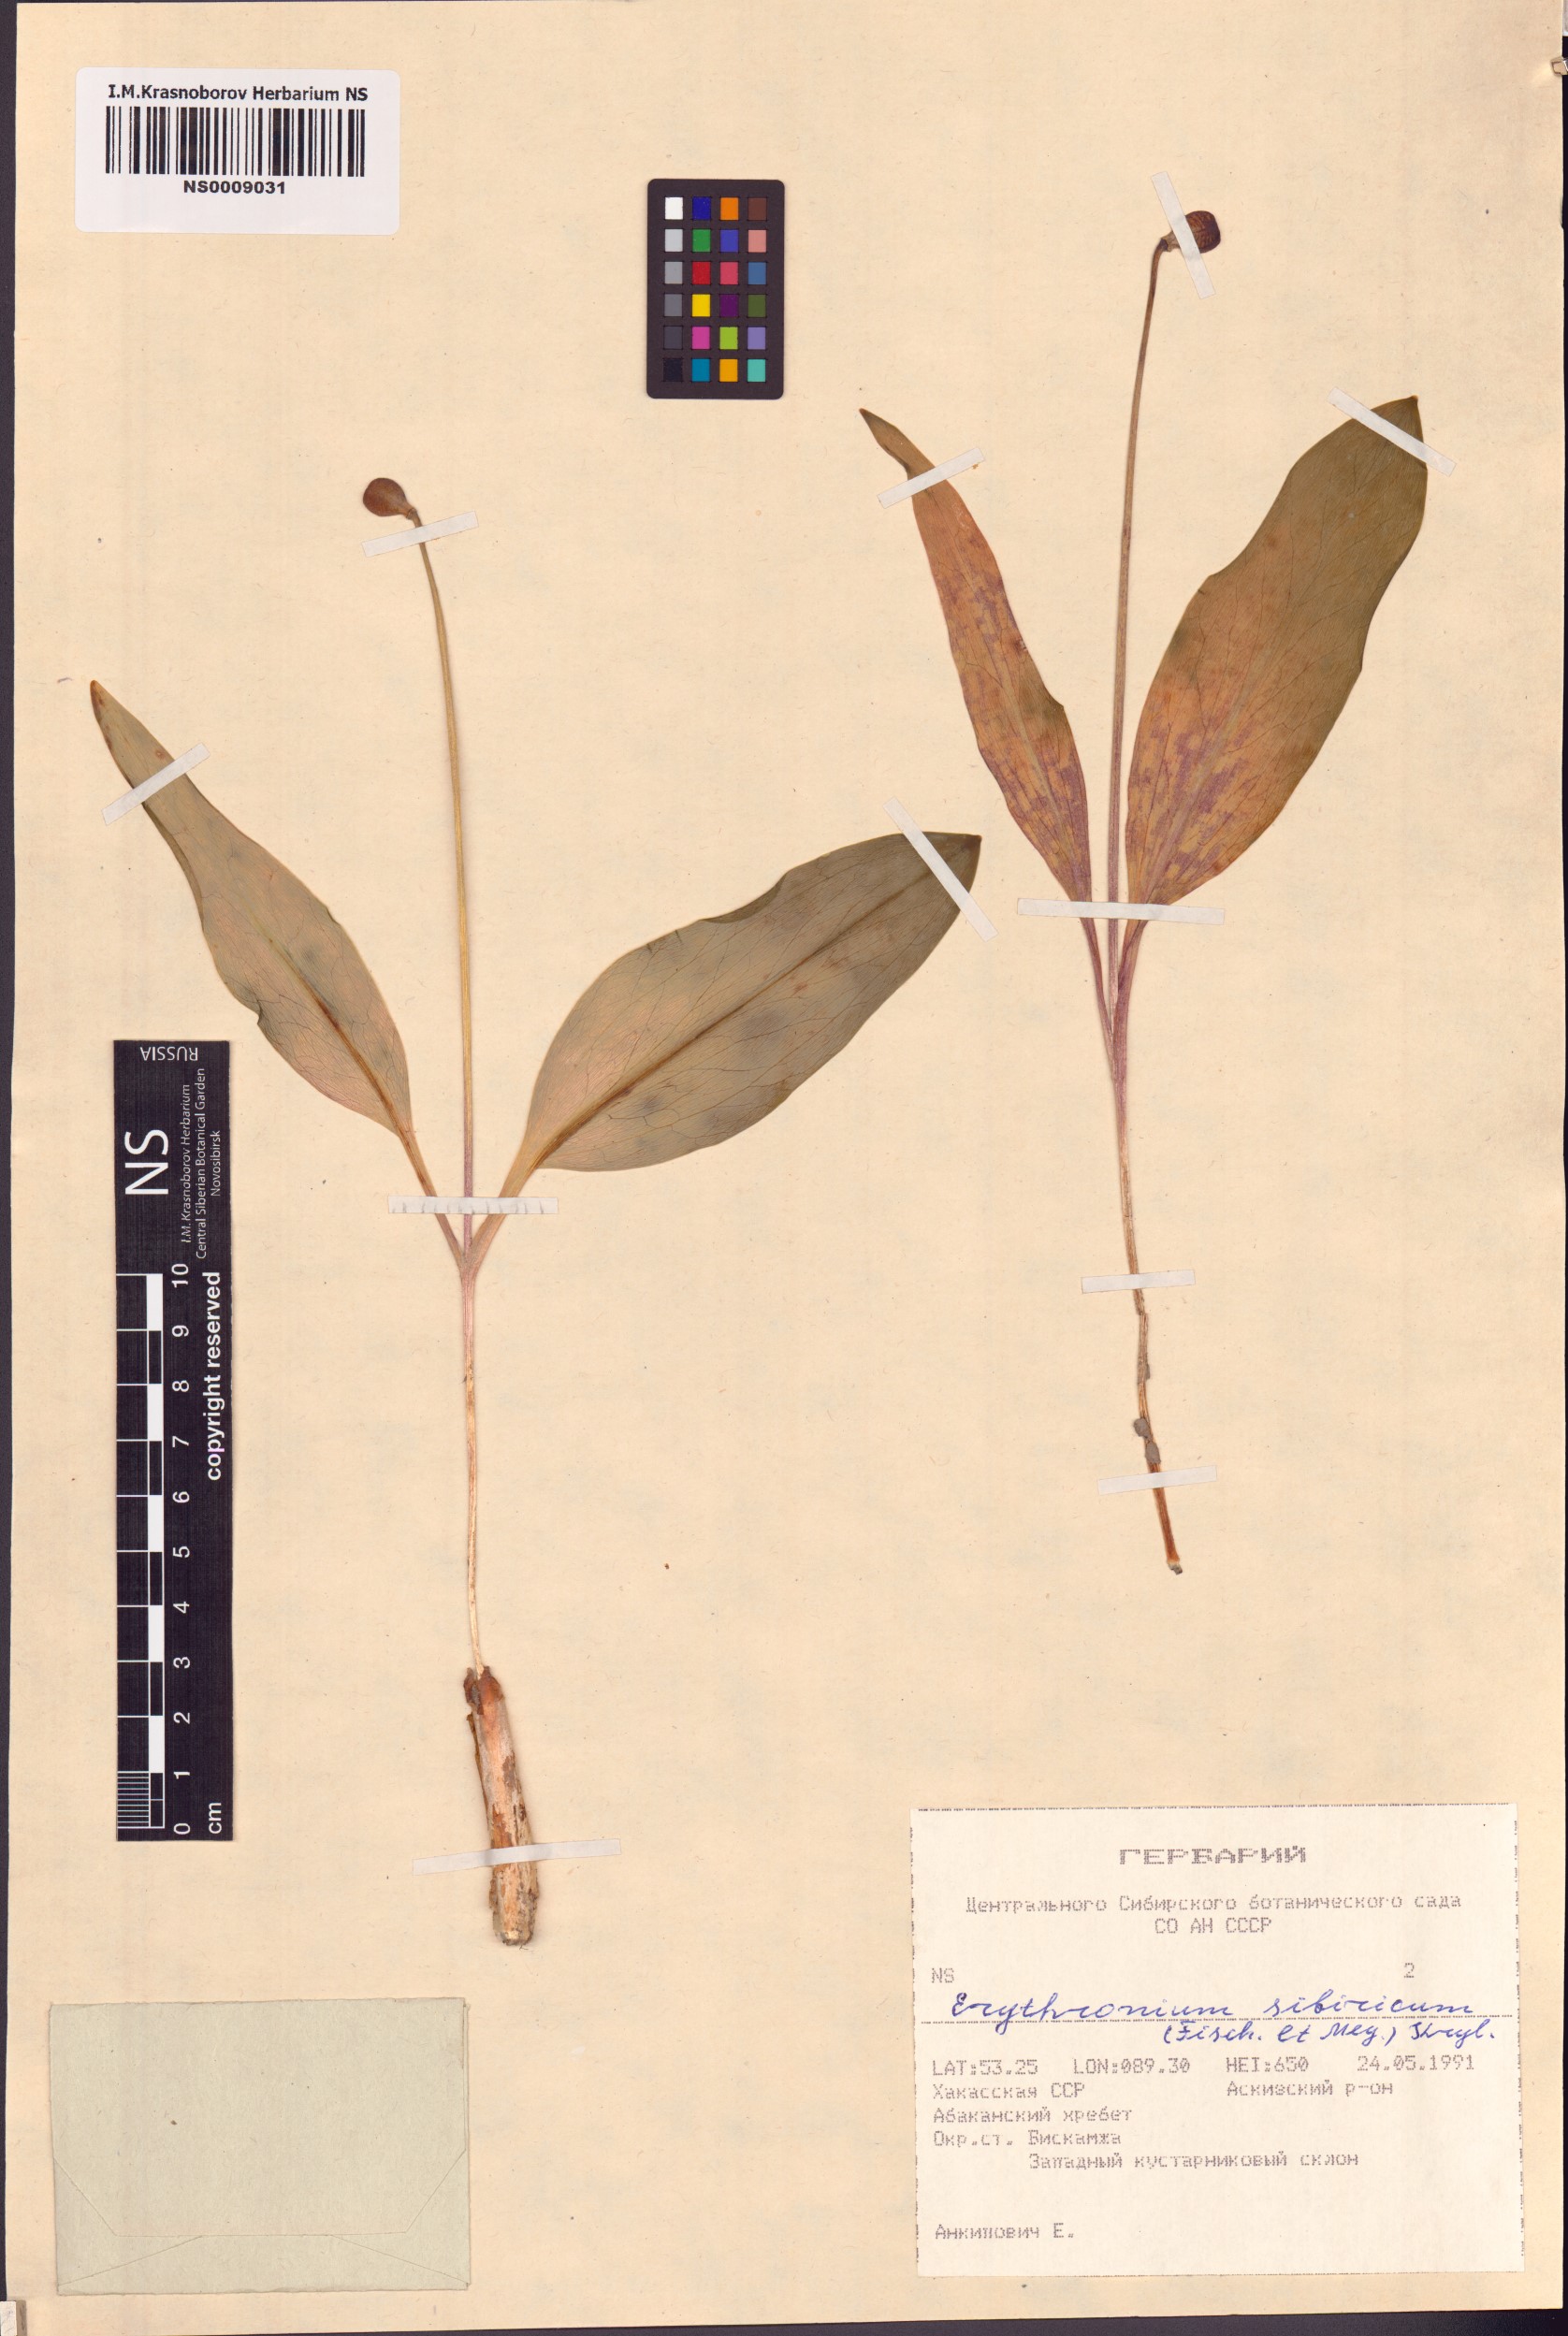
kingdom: Plantae
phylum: Tracheophyta
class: Liliopsida
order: Liliales
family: Liliaceae
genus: Erythronium
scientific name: Erythronium sibiricum
